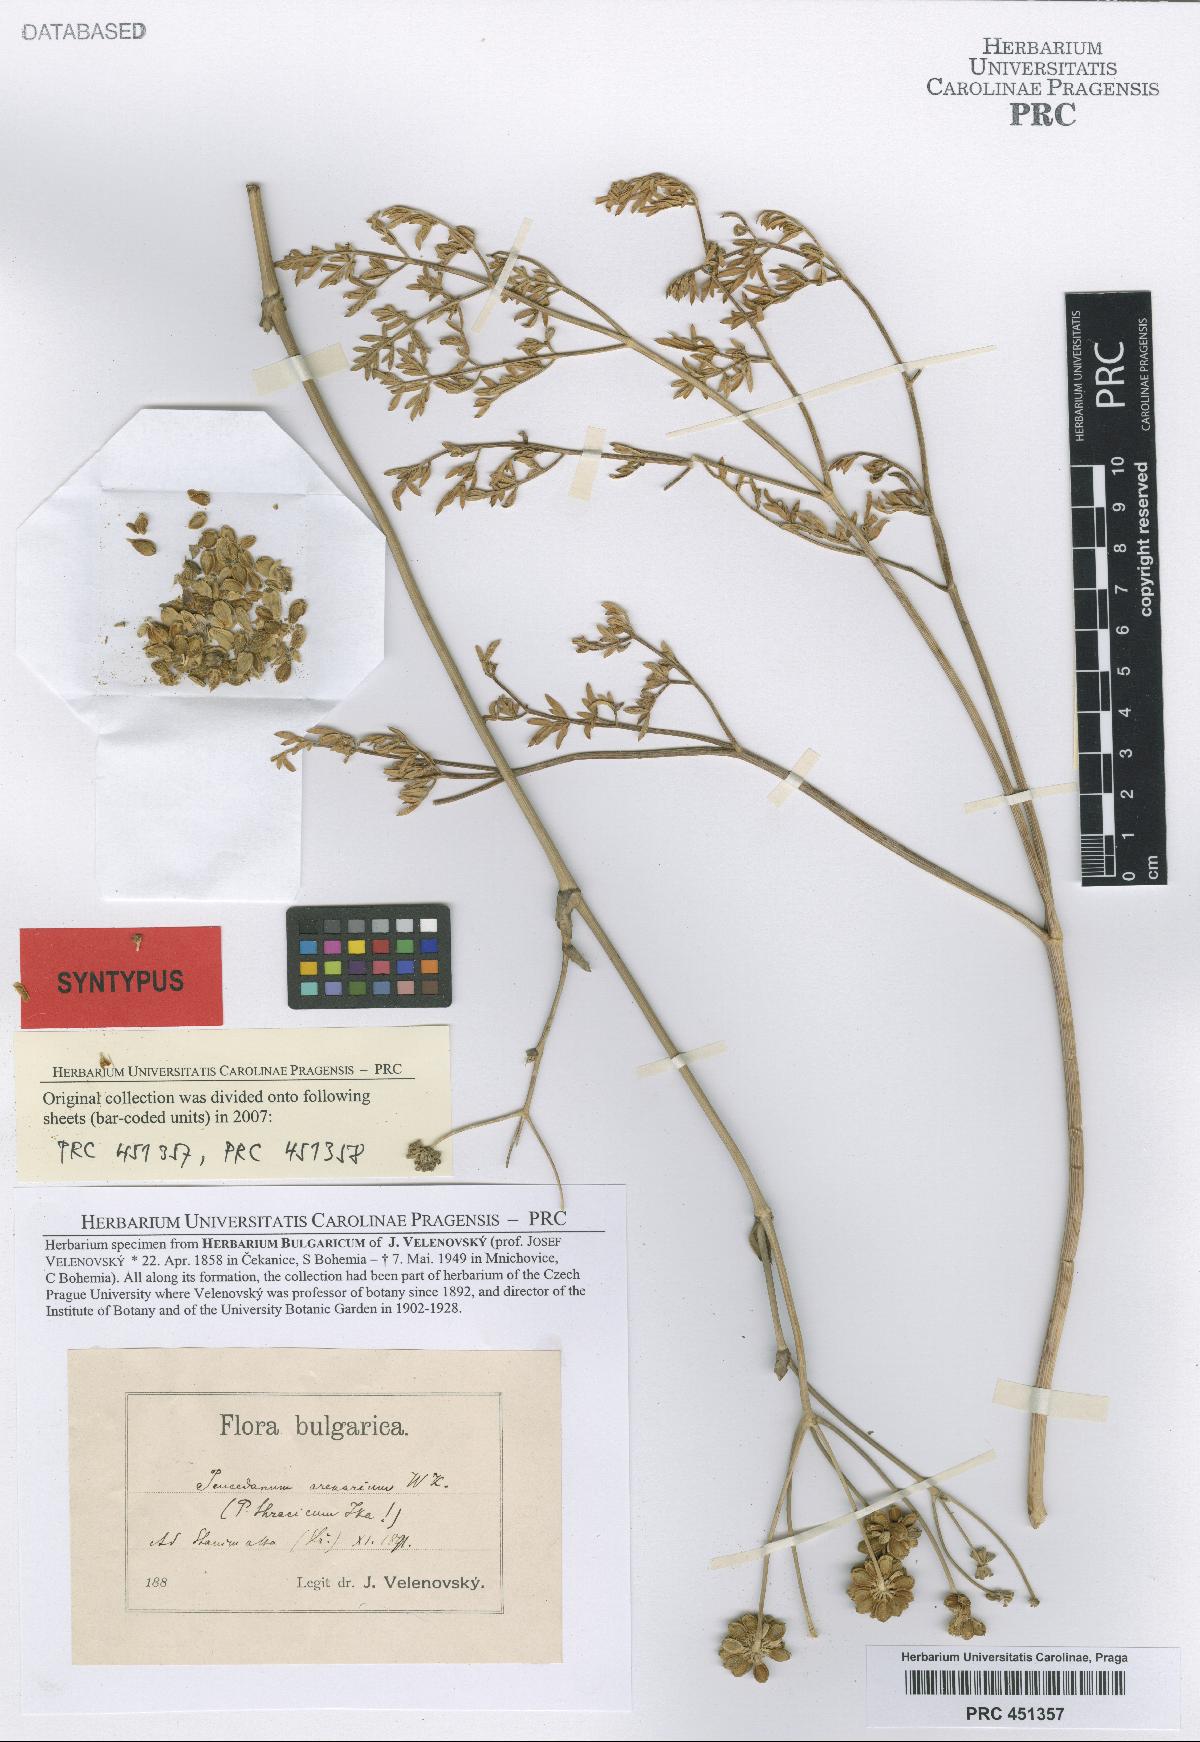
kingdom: Plantae
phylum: Tracheophyta
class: Magnoliopsida
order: Apiales
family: Apiaceae
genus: Dichoropetalum
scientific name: Dichoropetalum vittijugum
